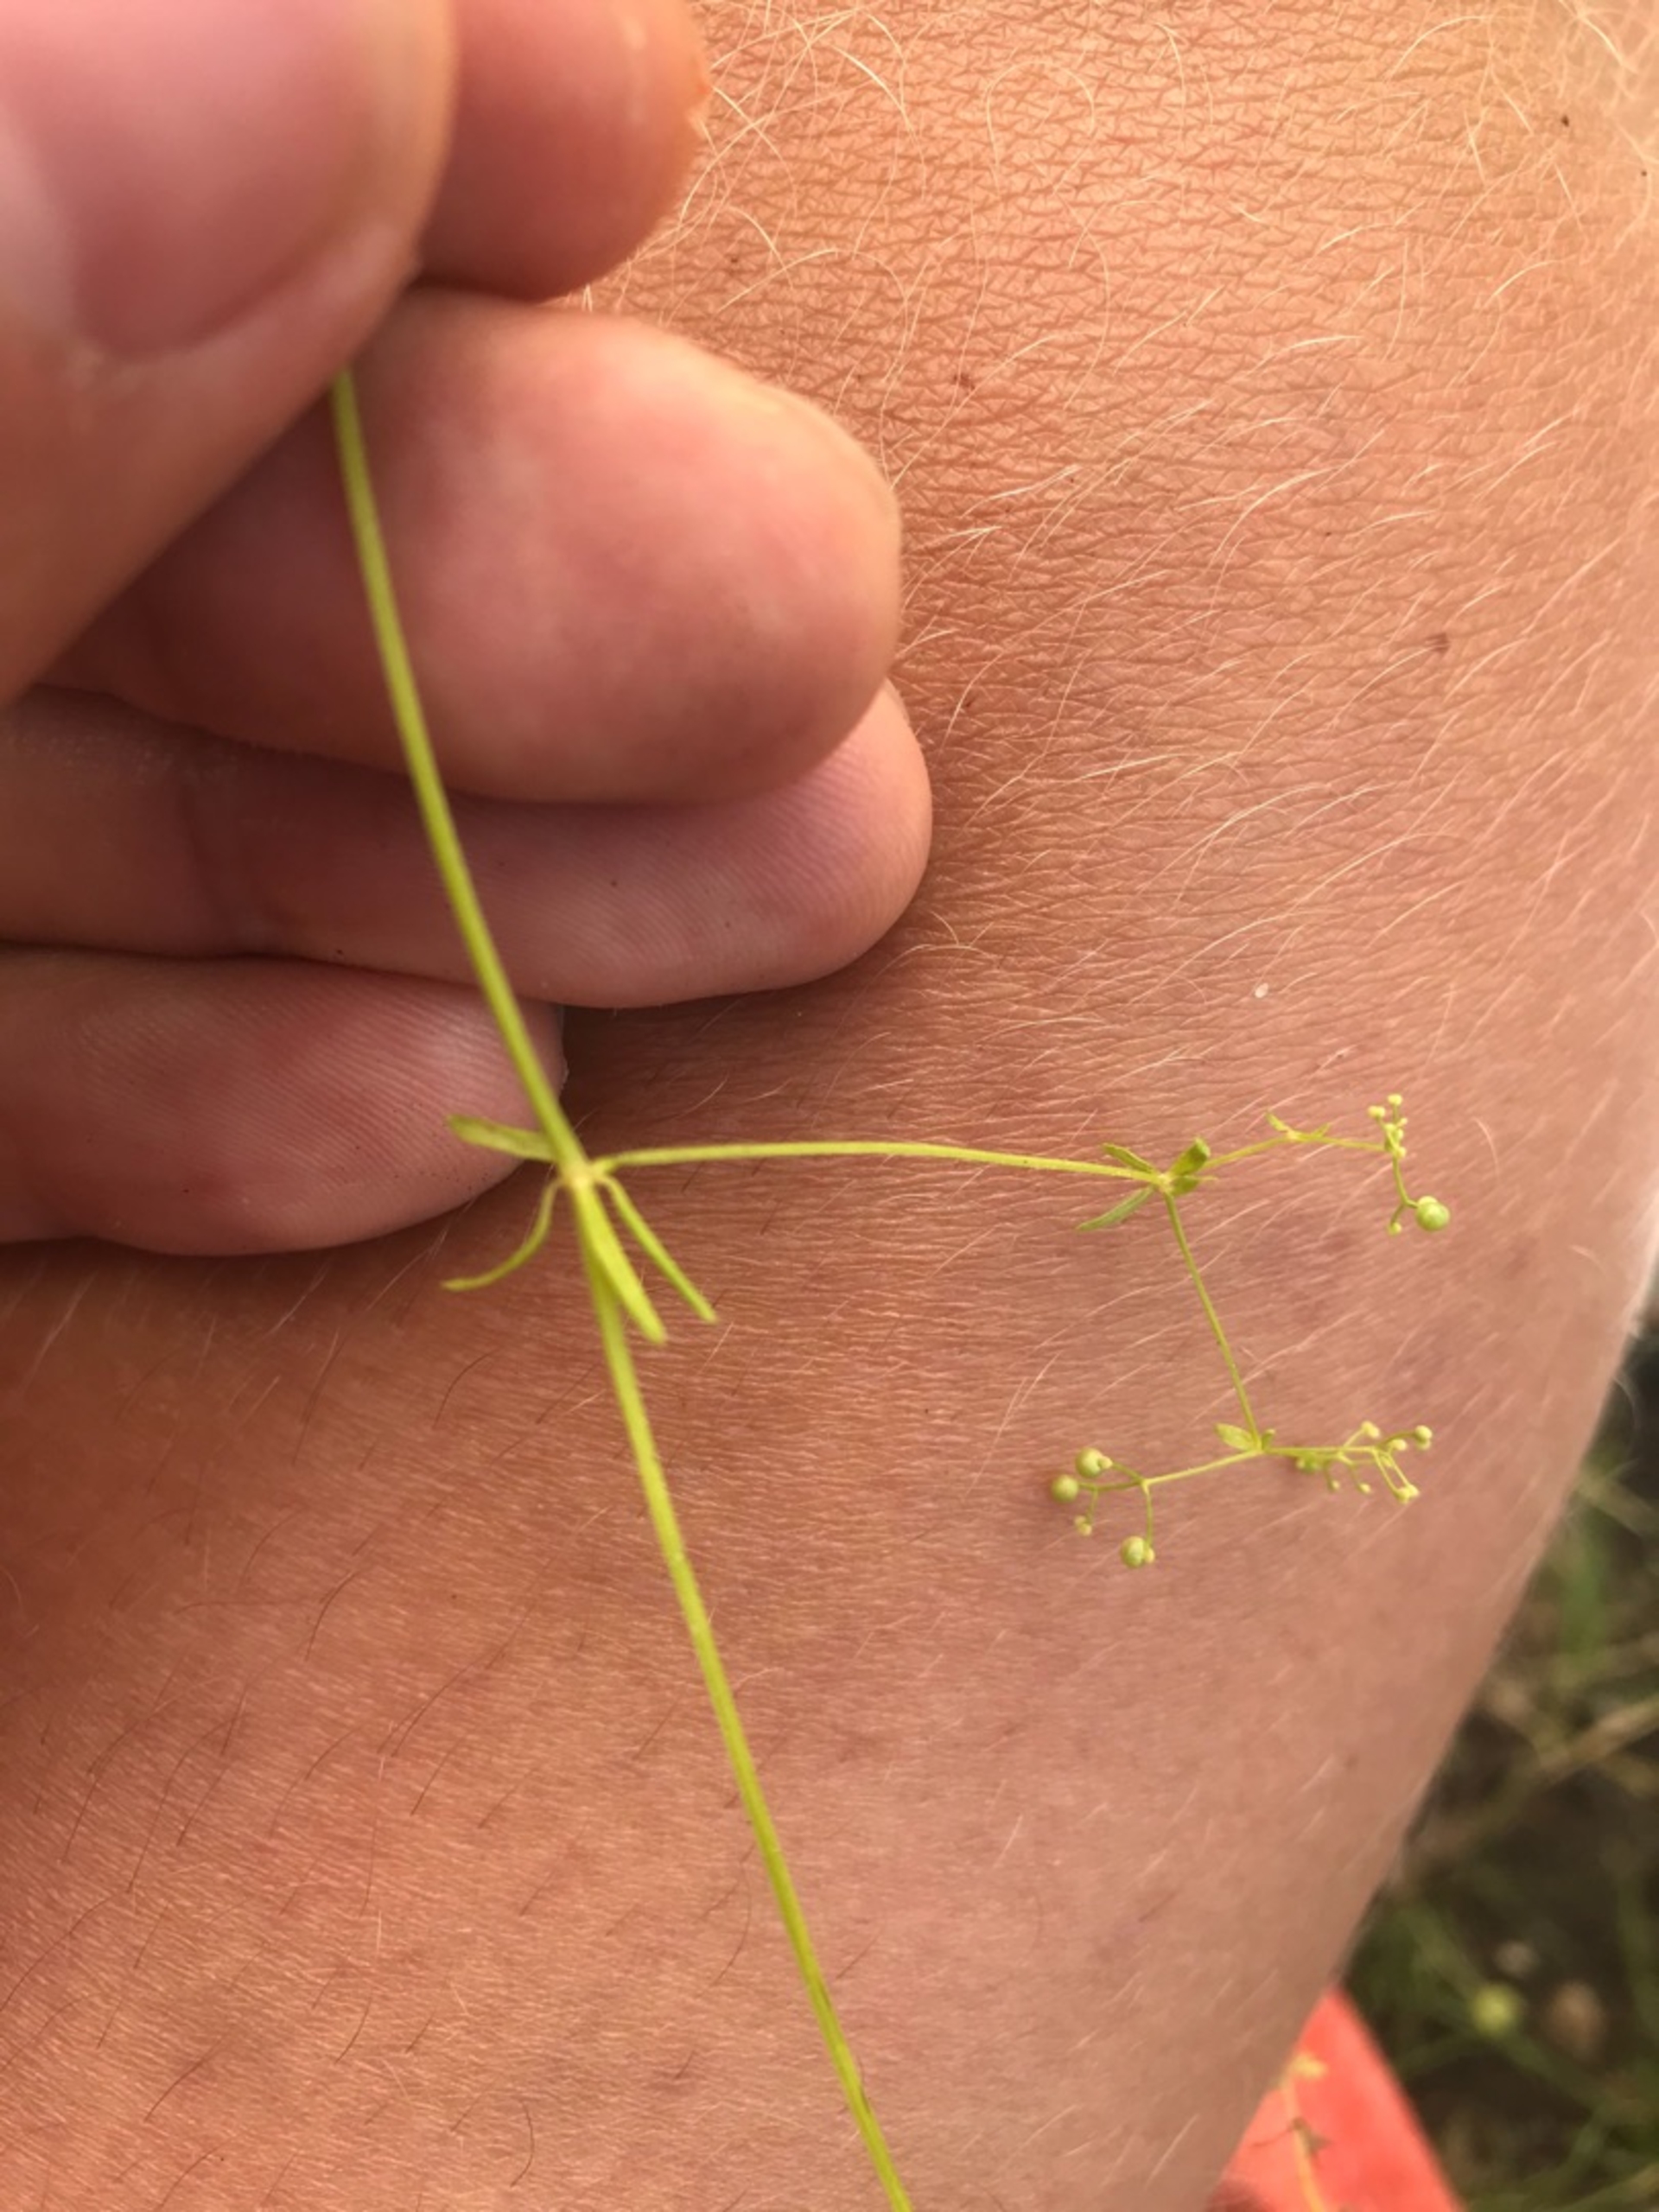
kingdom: Plantae
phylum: Tracheophyta
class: Magnoliopsida
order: Gentianales
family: Rubiaceae
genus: Galium
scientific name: Galium palustre
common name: Kær-snerre
